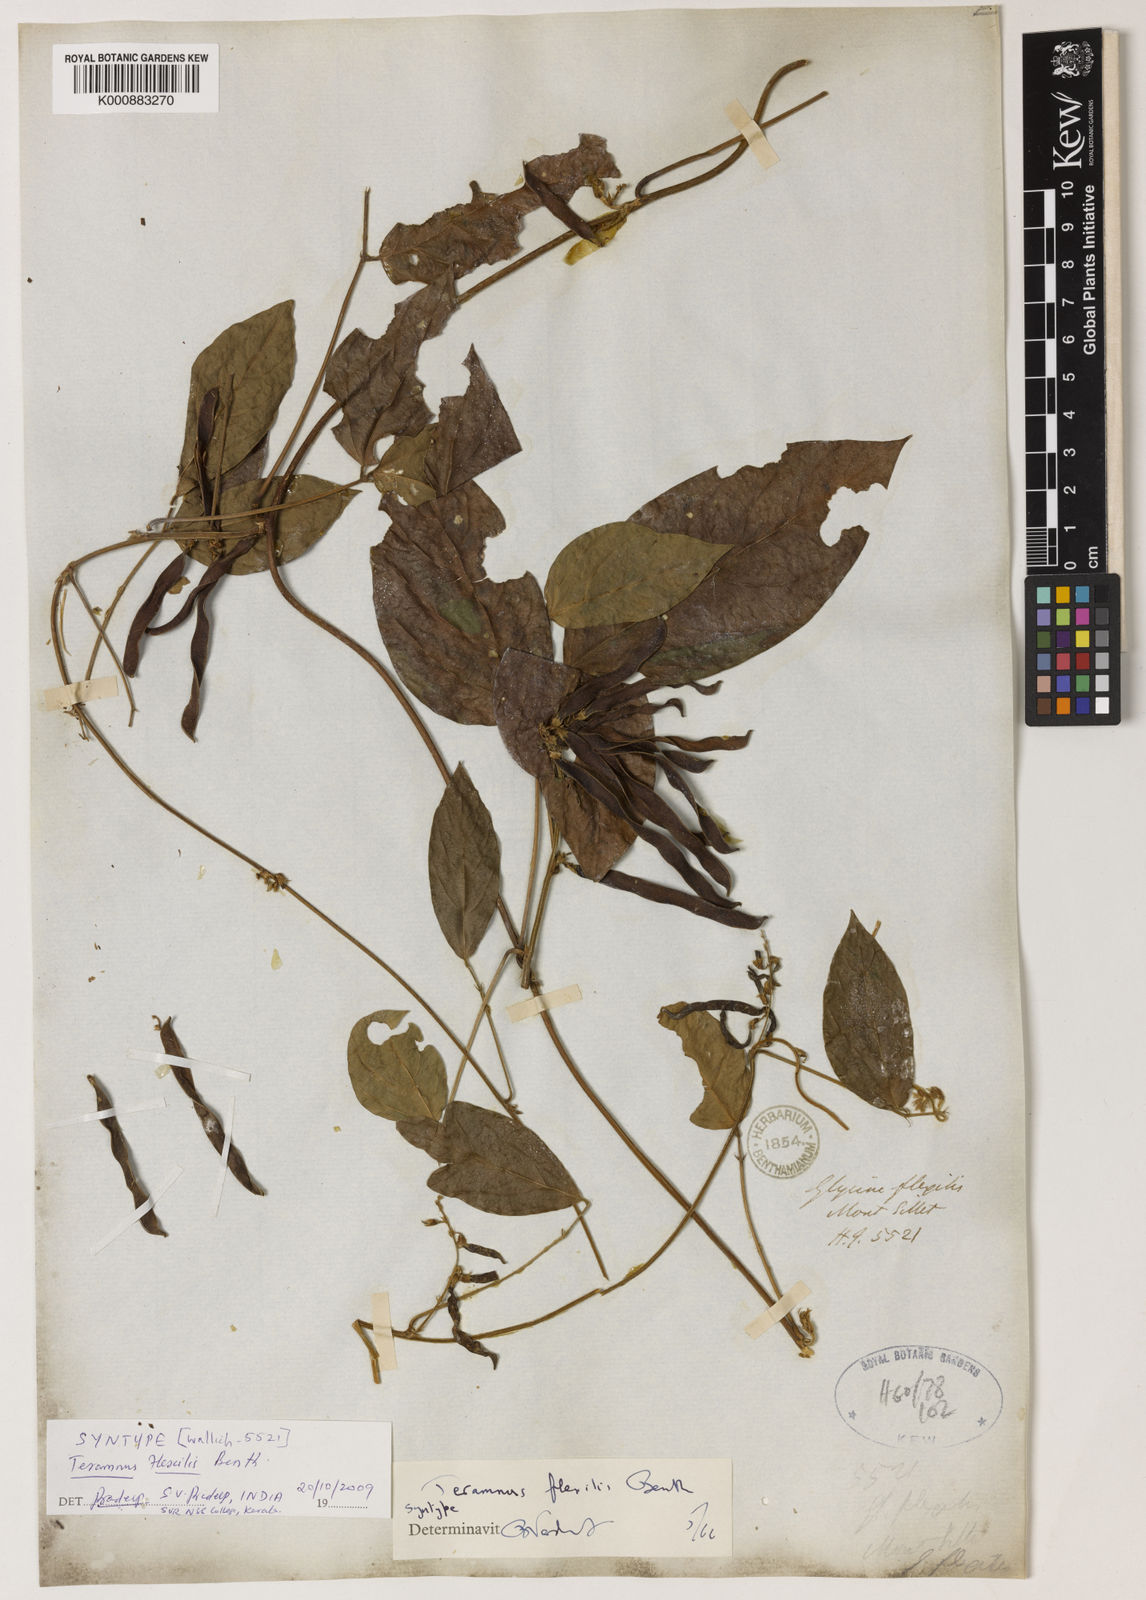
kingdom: Plantae
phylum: Tracheophyta
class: Magnoliopsida
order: Fabales
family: Fabaceae
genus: Teramnus
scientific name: Teramnus flexilis
